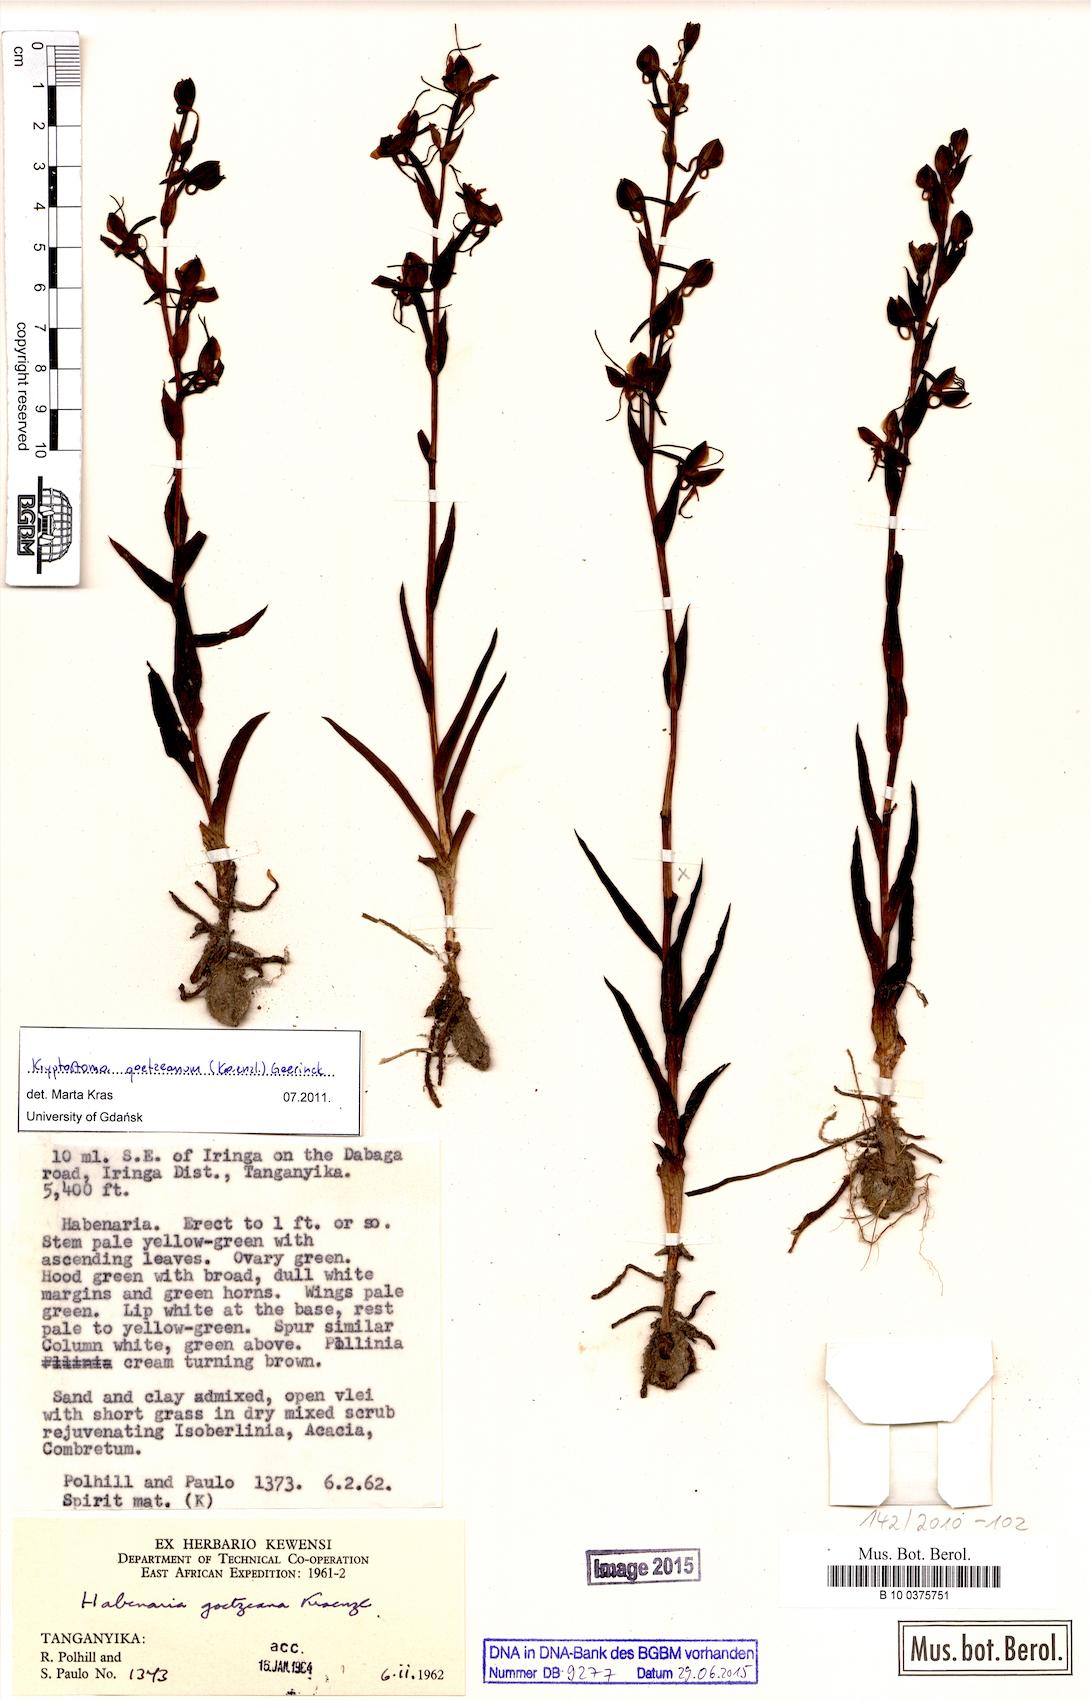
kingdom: Plantae
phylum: Tracheophyta
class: Liliopsida
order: Asparagales
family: Orchidaceae
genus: Habenaria
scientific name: Habenaria goetzeana
